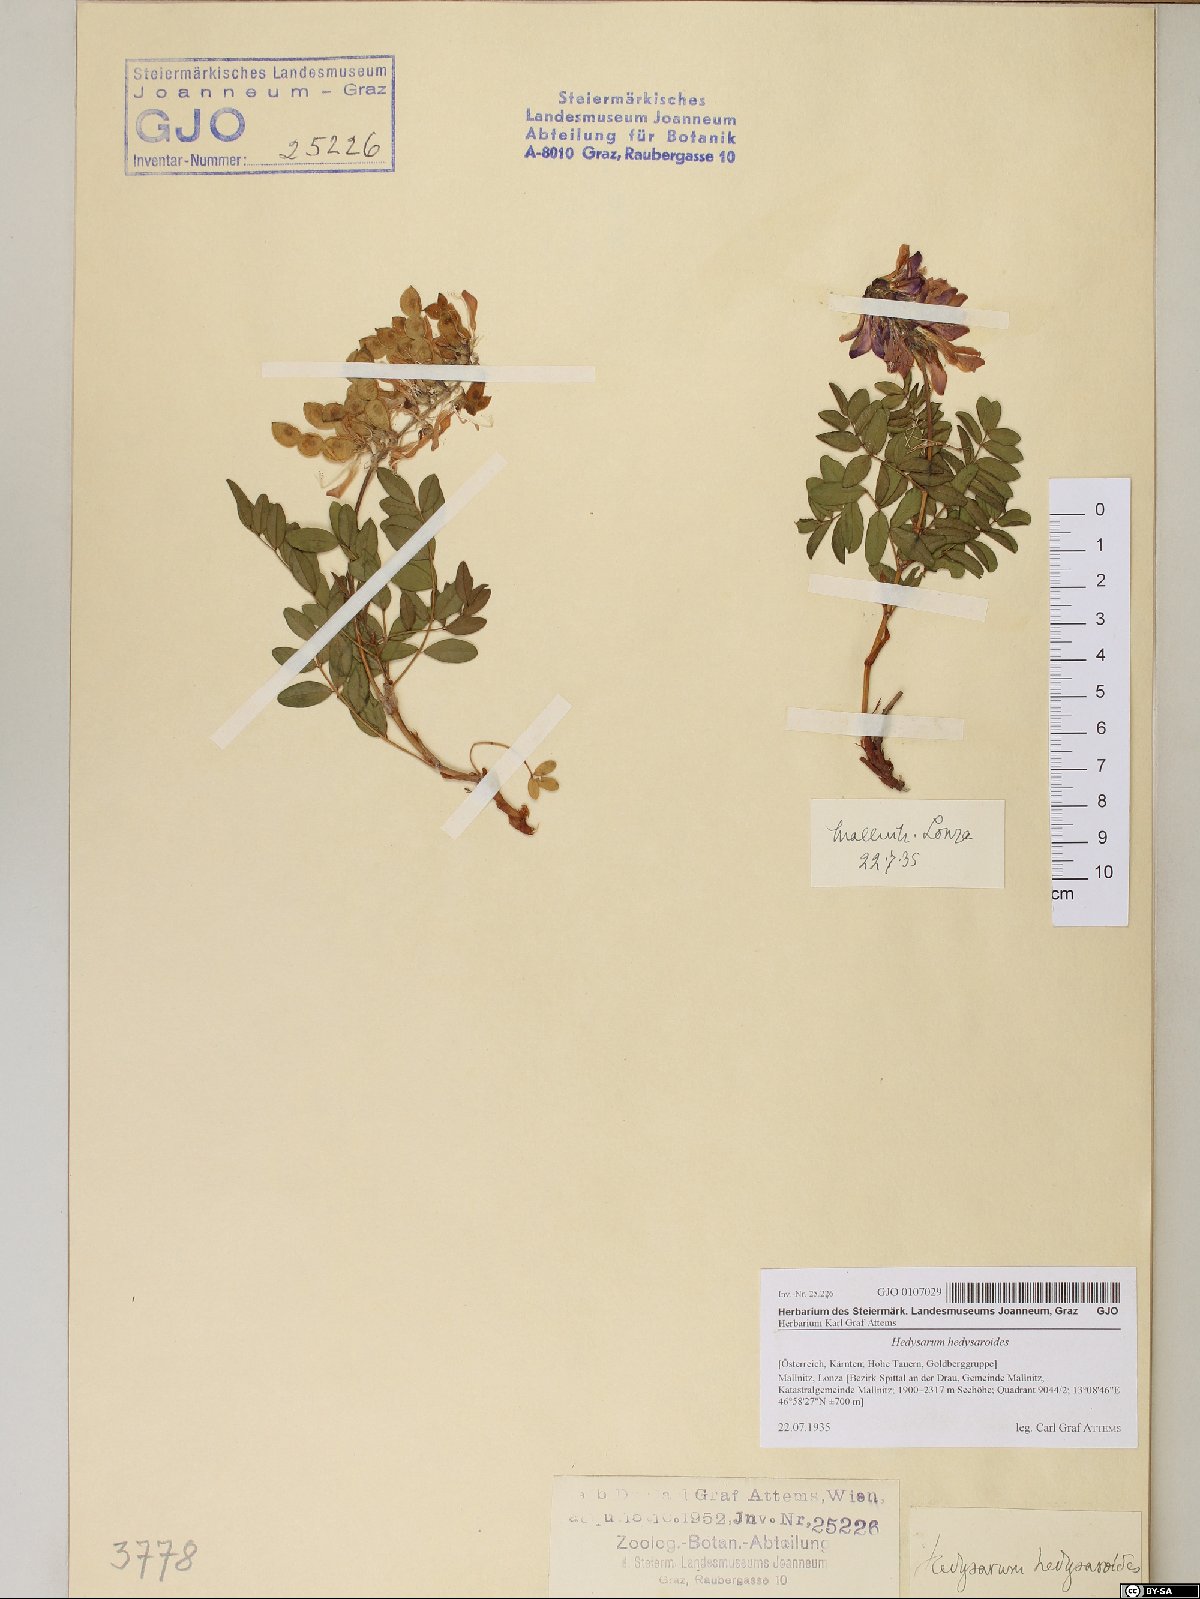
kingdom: Plantae
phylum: Tracheophyta
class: Magnoliopsida
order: Fabales
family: Fabaceae
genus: Hedysarum
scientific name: Hedysarum hedysaroides
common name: Alpine french-honeysuckle
